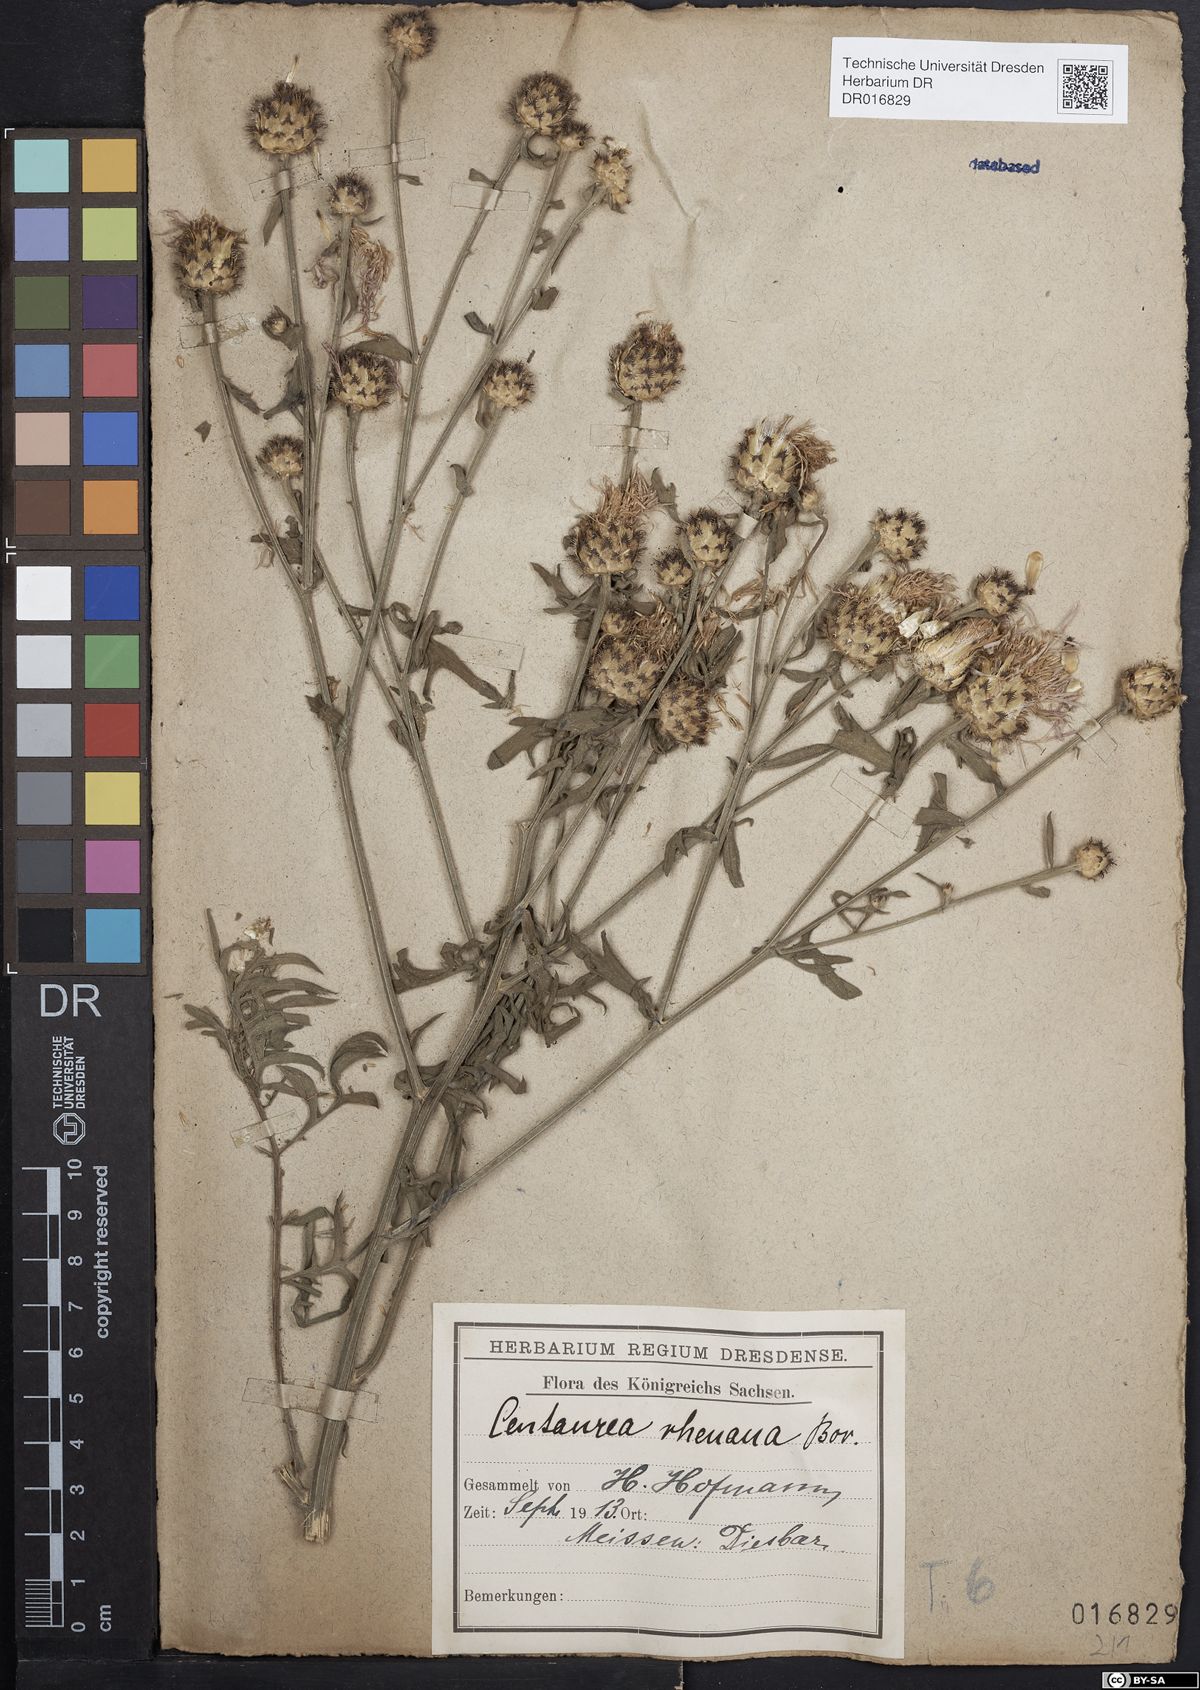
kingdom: Plantae
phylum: Tracheophyta
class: Magnoliopsida
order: Asterales
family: Asteraceae
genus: Centaurea
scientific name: Centaurea stoebe
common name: Spotted knapweed
